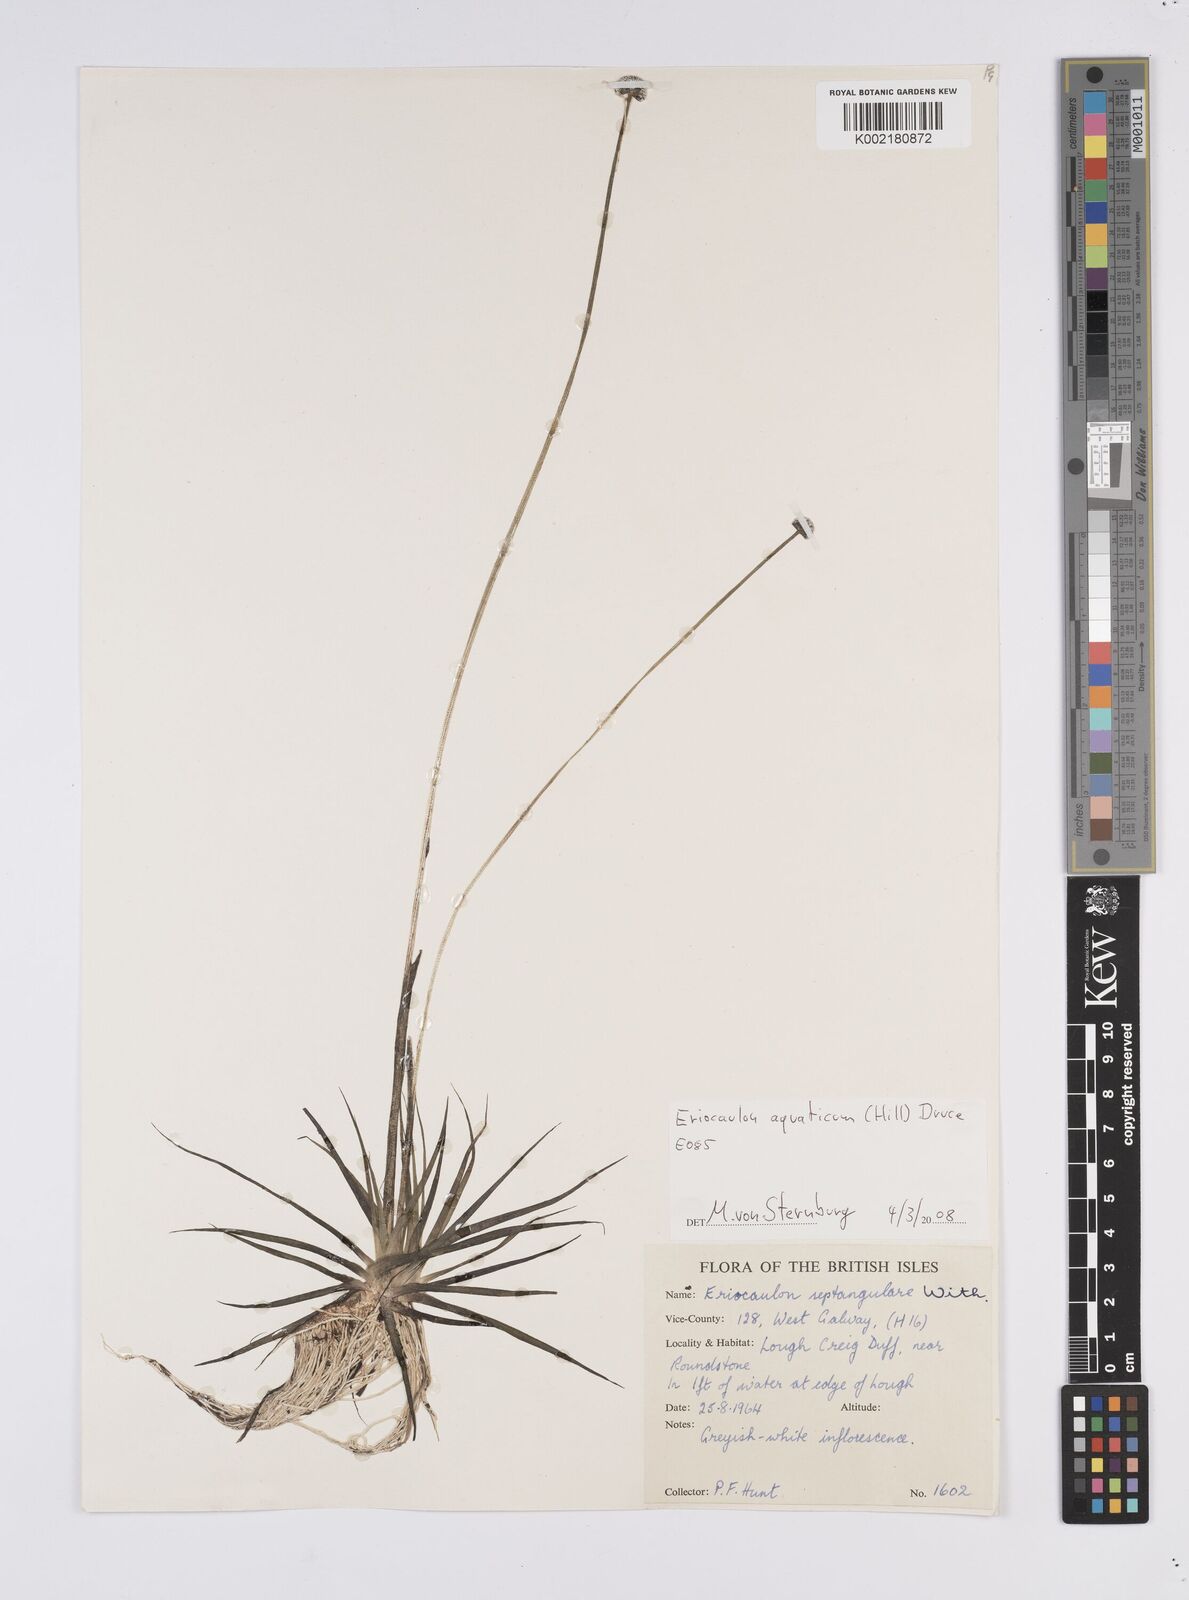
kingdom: Plantae
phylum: Tracheophyta
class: Liliopsida
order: Poales
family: Eriocaulaceae
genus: Eriocaulon
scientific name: Eriocaulon aquaticum
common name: Pipewort
